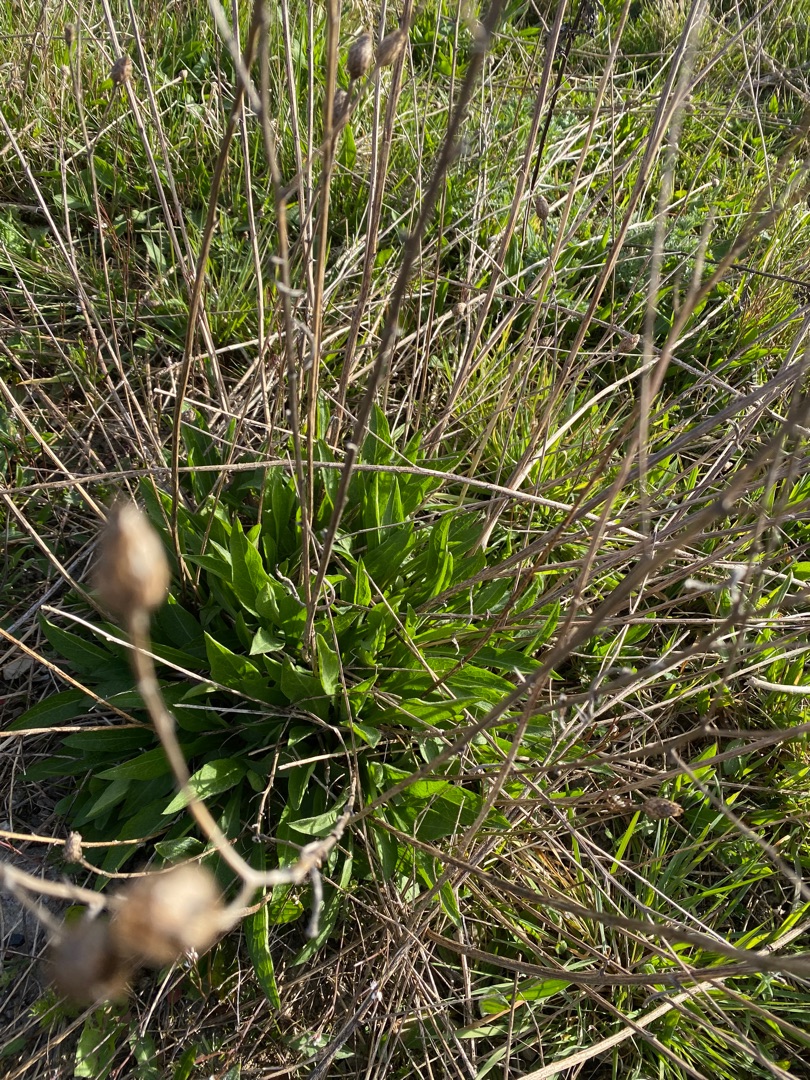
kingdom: Plantae
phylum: Tracheophyta
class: Magnoliopsida
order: Asterales
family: Asteraceae
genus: Centaurea
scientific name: Centaurea jacea
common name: Almindelig knopurt
